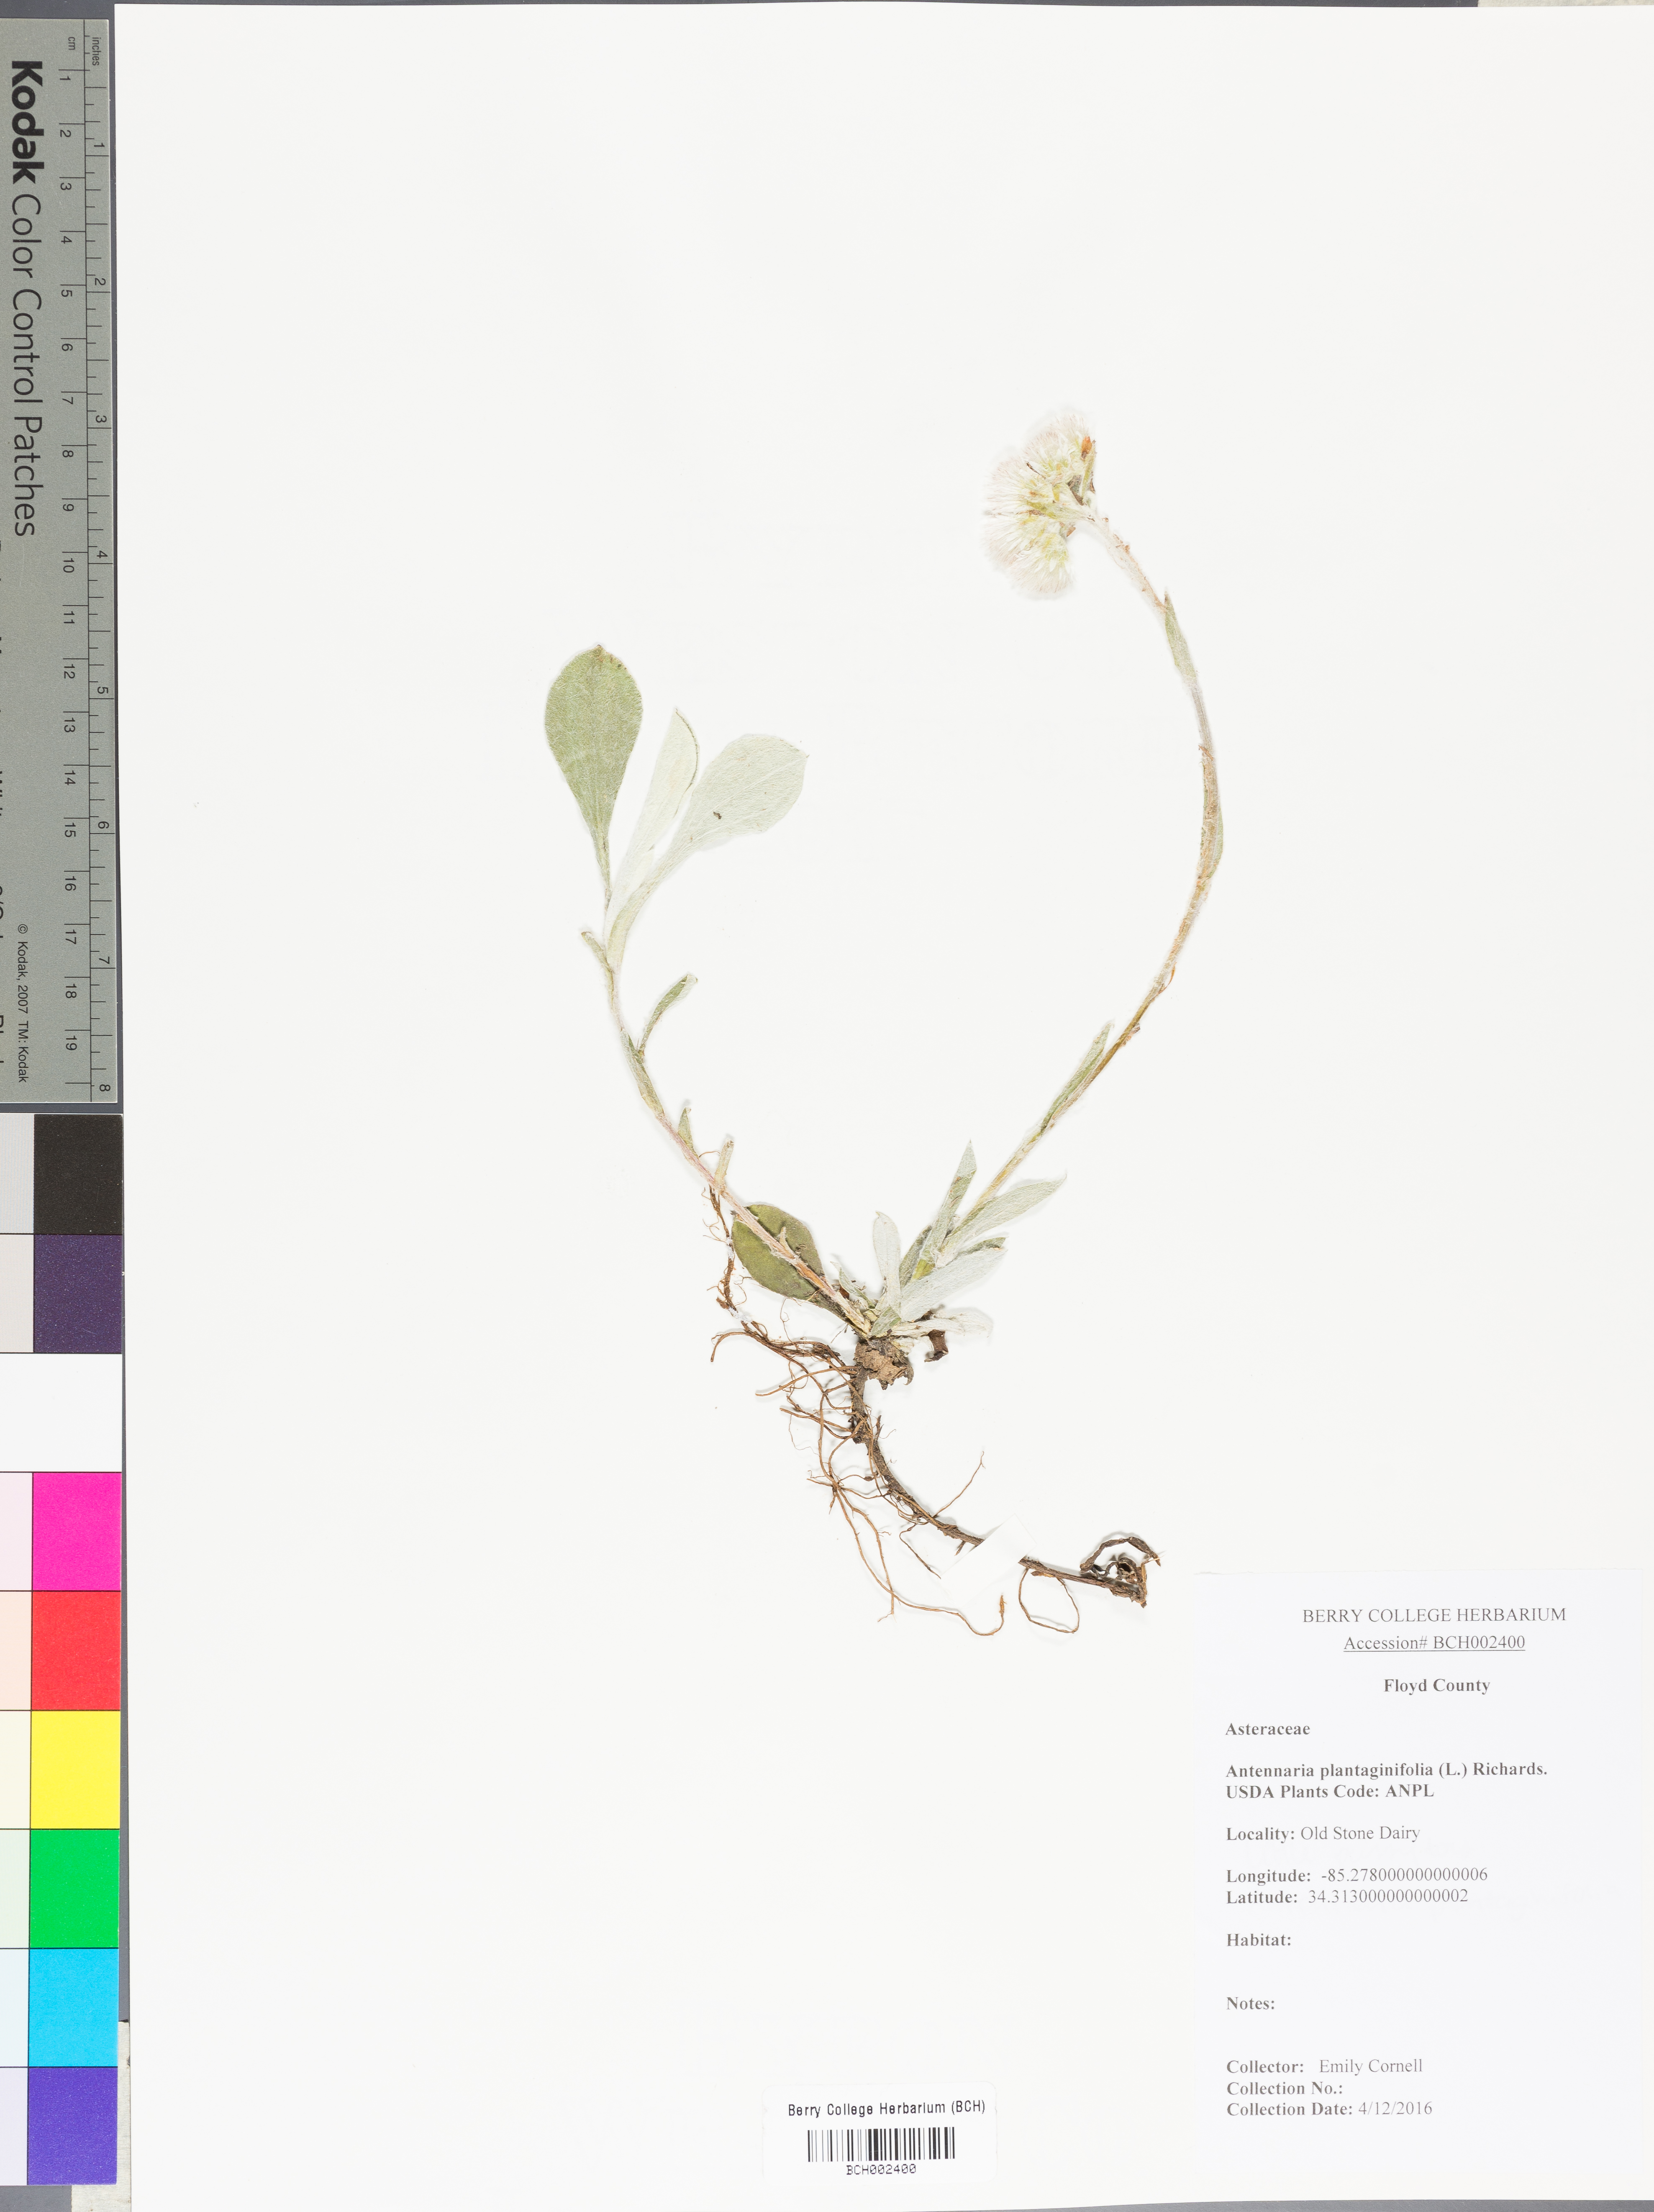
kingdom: Plantae
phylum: Tracheophyta
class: Magnoliopsida
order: Asterales
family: Asteraceae
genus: Antennaria
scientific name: Antennaria plantaginifolia
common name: Plantain-leaved pussytoes
